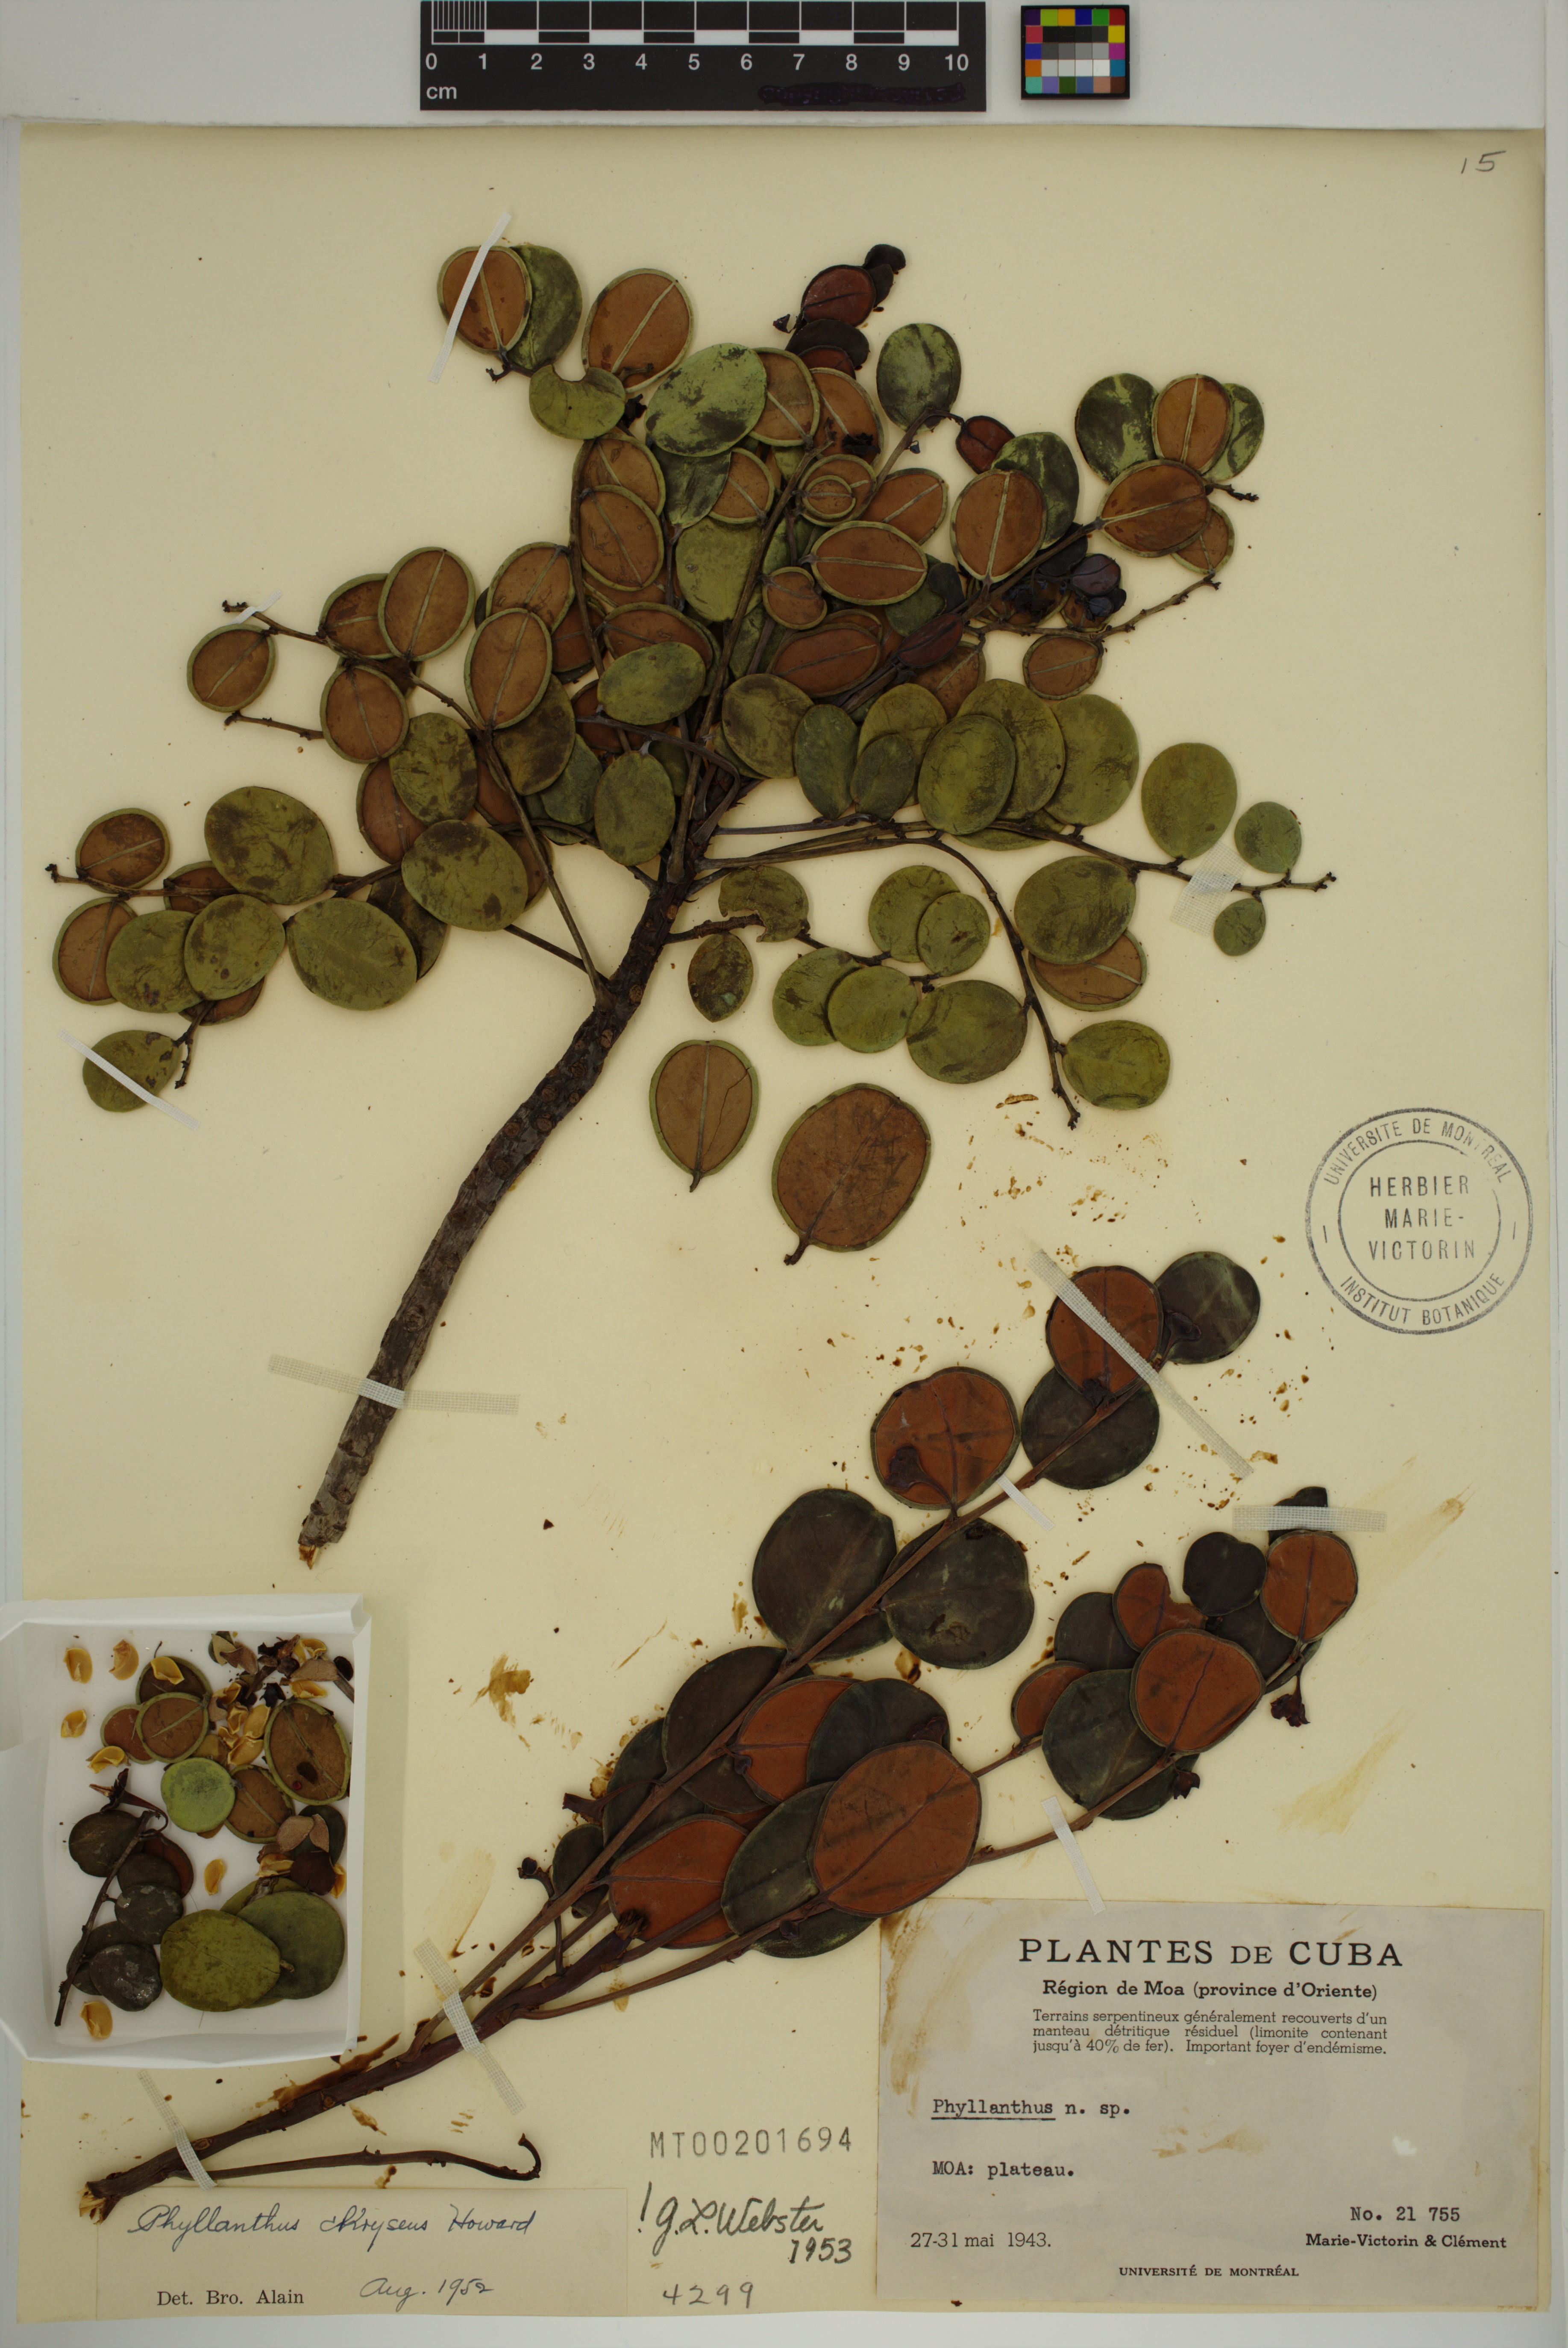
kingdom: Plantae
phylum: Tracheophyta
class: Magnoliopsida
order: Malpighiales
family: Phyllanthaceae
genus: Phyllanthus
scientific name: Phyllanthus chryseus
